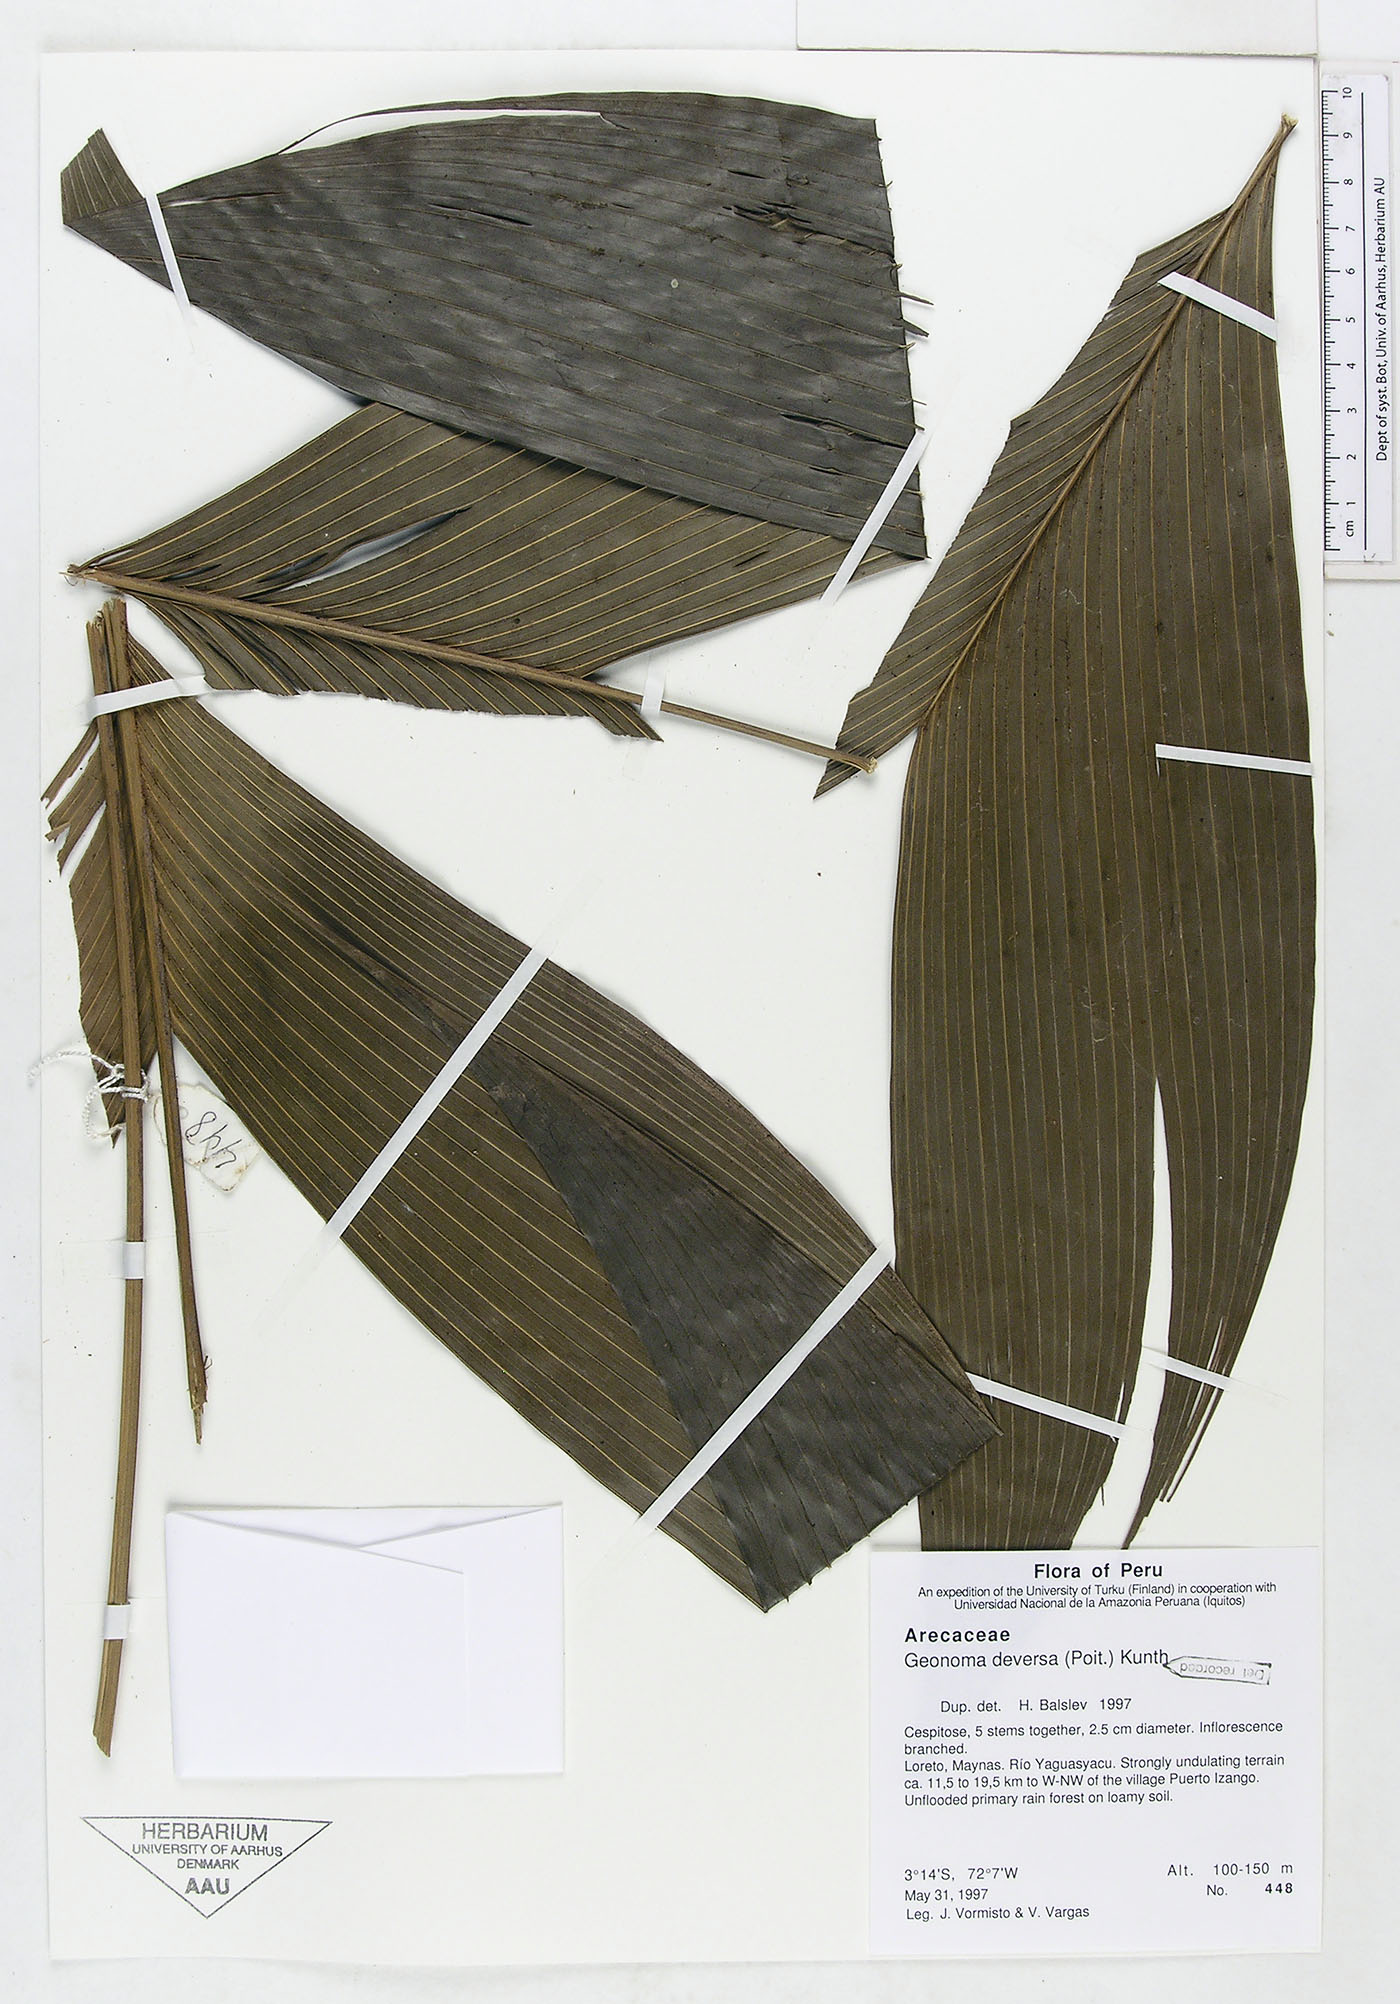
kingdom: Plantae
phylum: Tracheophyta
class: Liliopsida
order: Arecales
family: Arecaceae
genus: Geonoma
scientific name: Geonoma deversa
